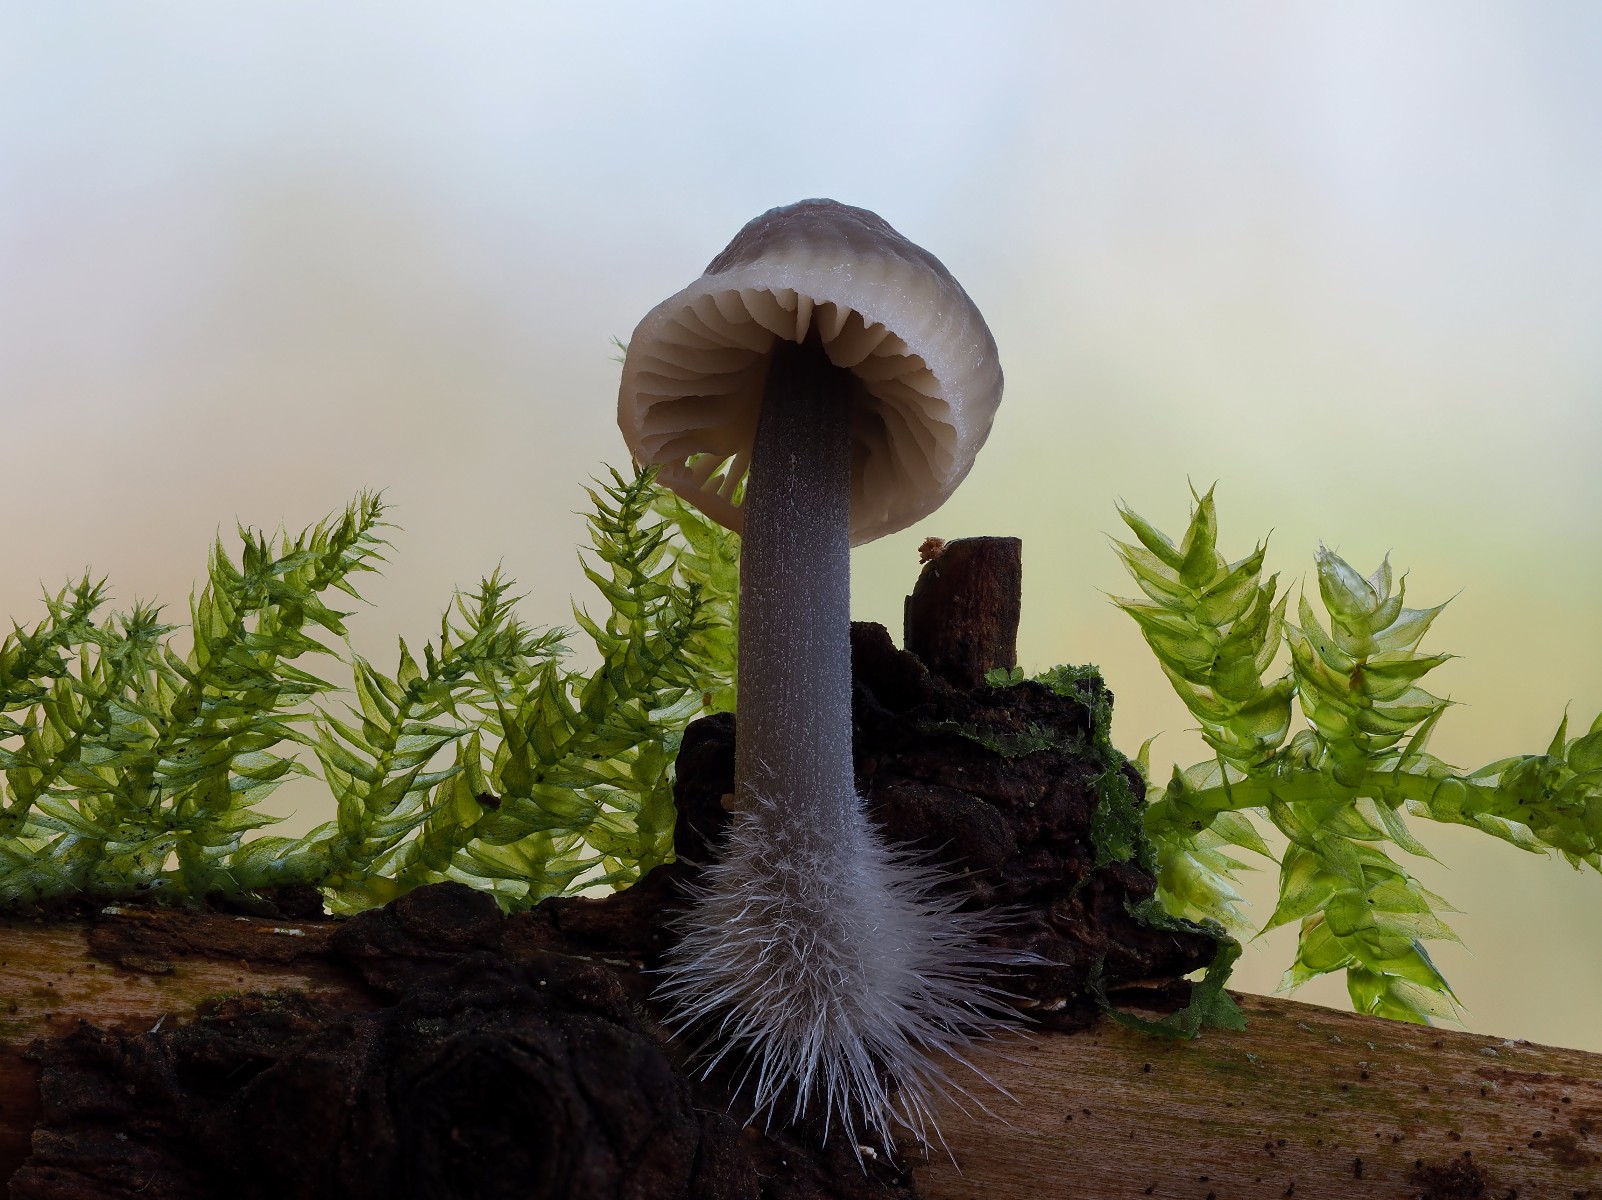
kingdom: Fungi
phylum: Basidiomycota
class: Agaricomycetes
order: Agaricales
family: Mycenaceae
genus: Mycena
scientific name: Mycena arcangeliana
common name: oliven-huesvamp
